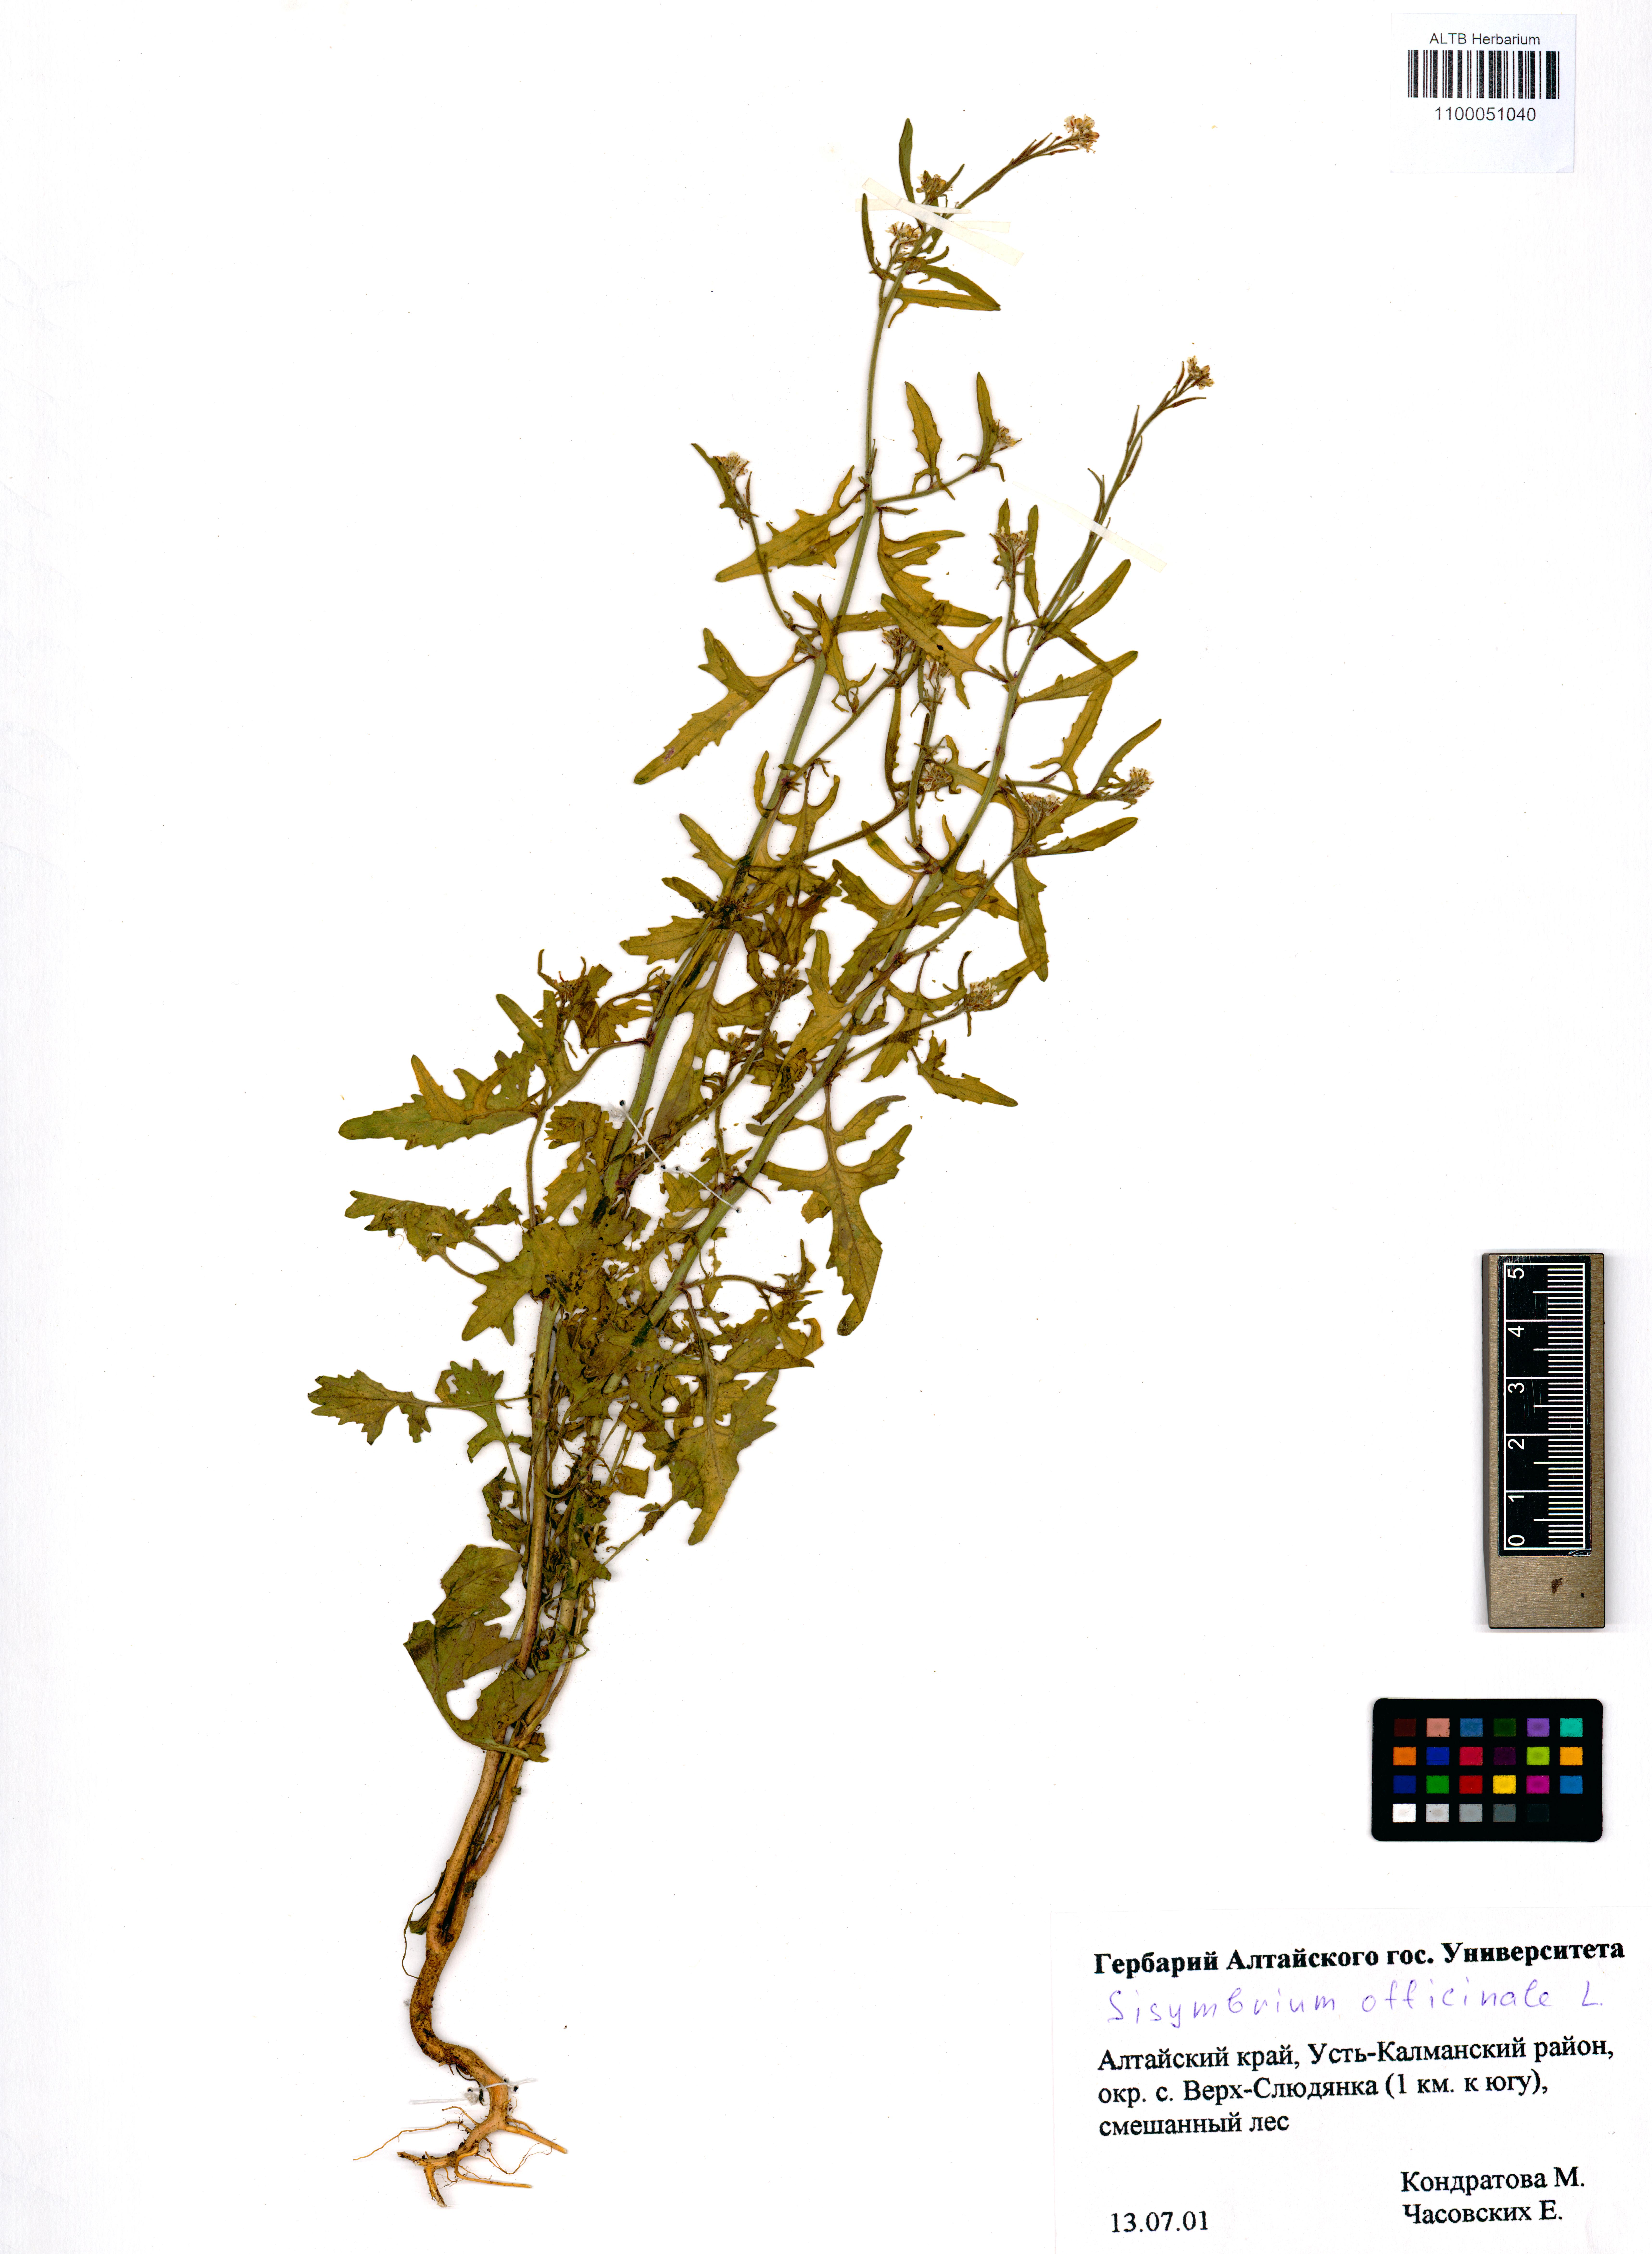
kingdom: Plantae
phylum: Tracheophyta
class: Magnoliopsida
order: Brassicales
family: Brassicaceae
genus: Sisymbrium
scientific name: Sisymbrium officinale
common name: Hedge mustard
